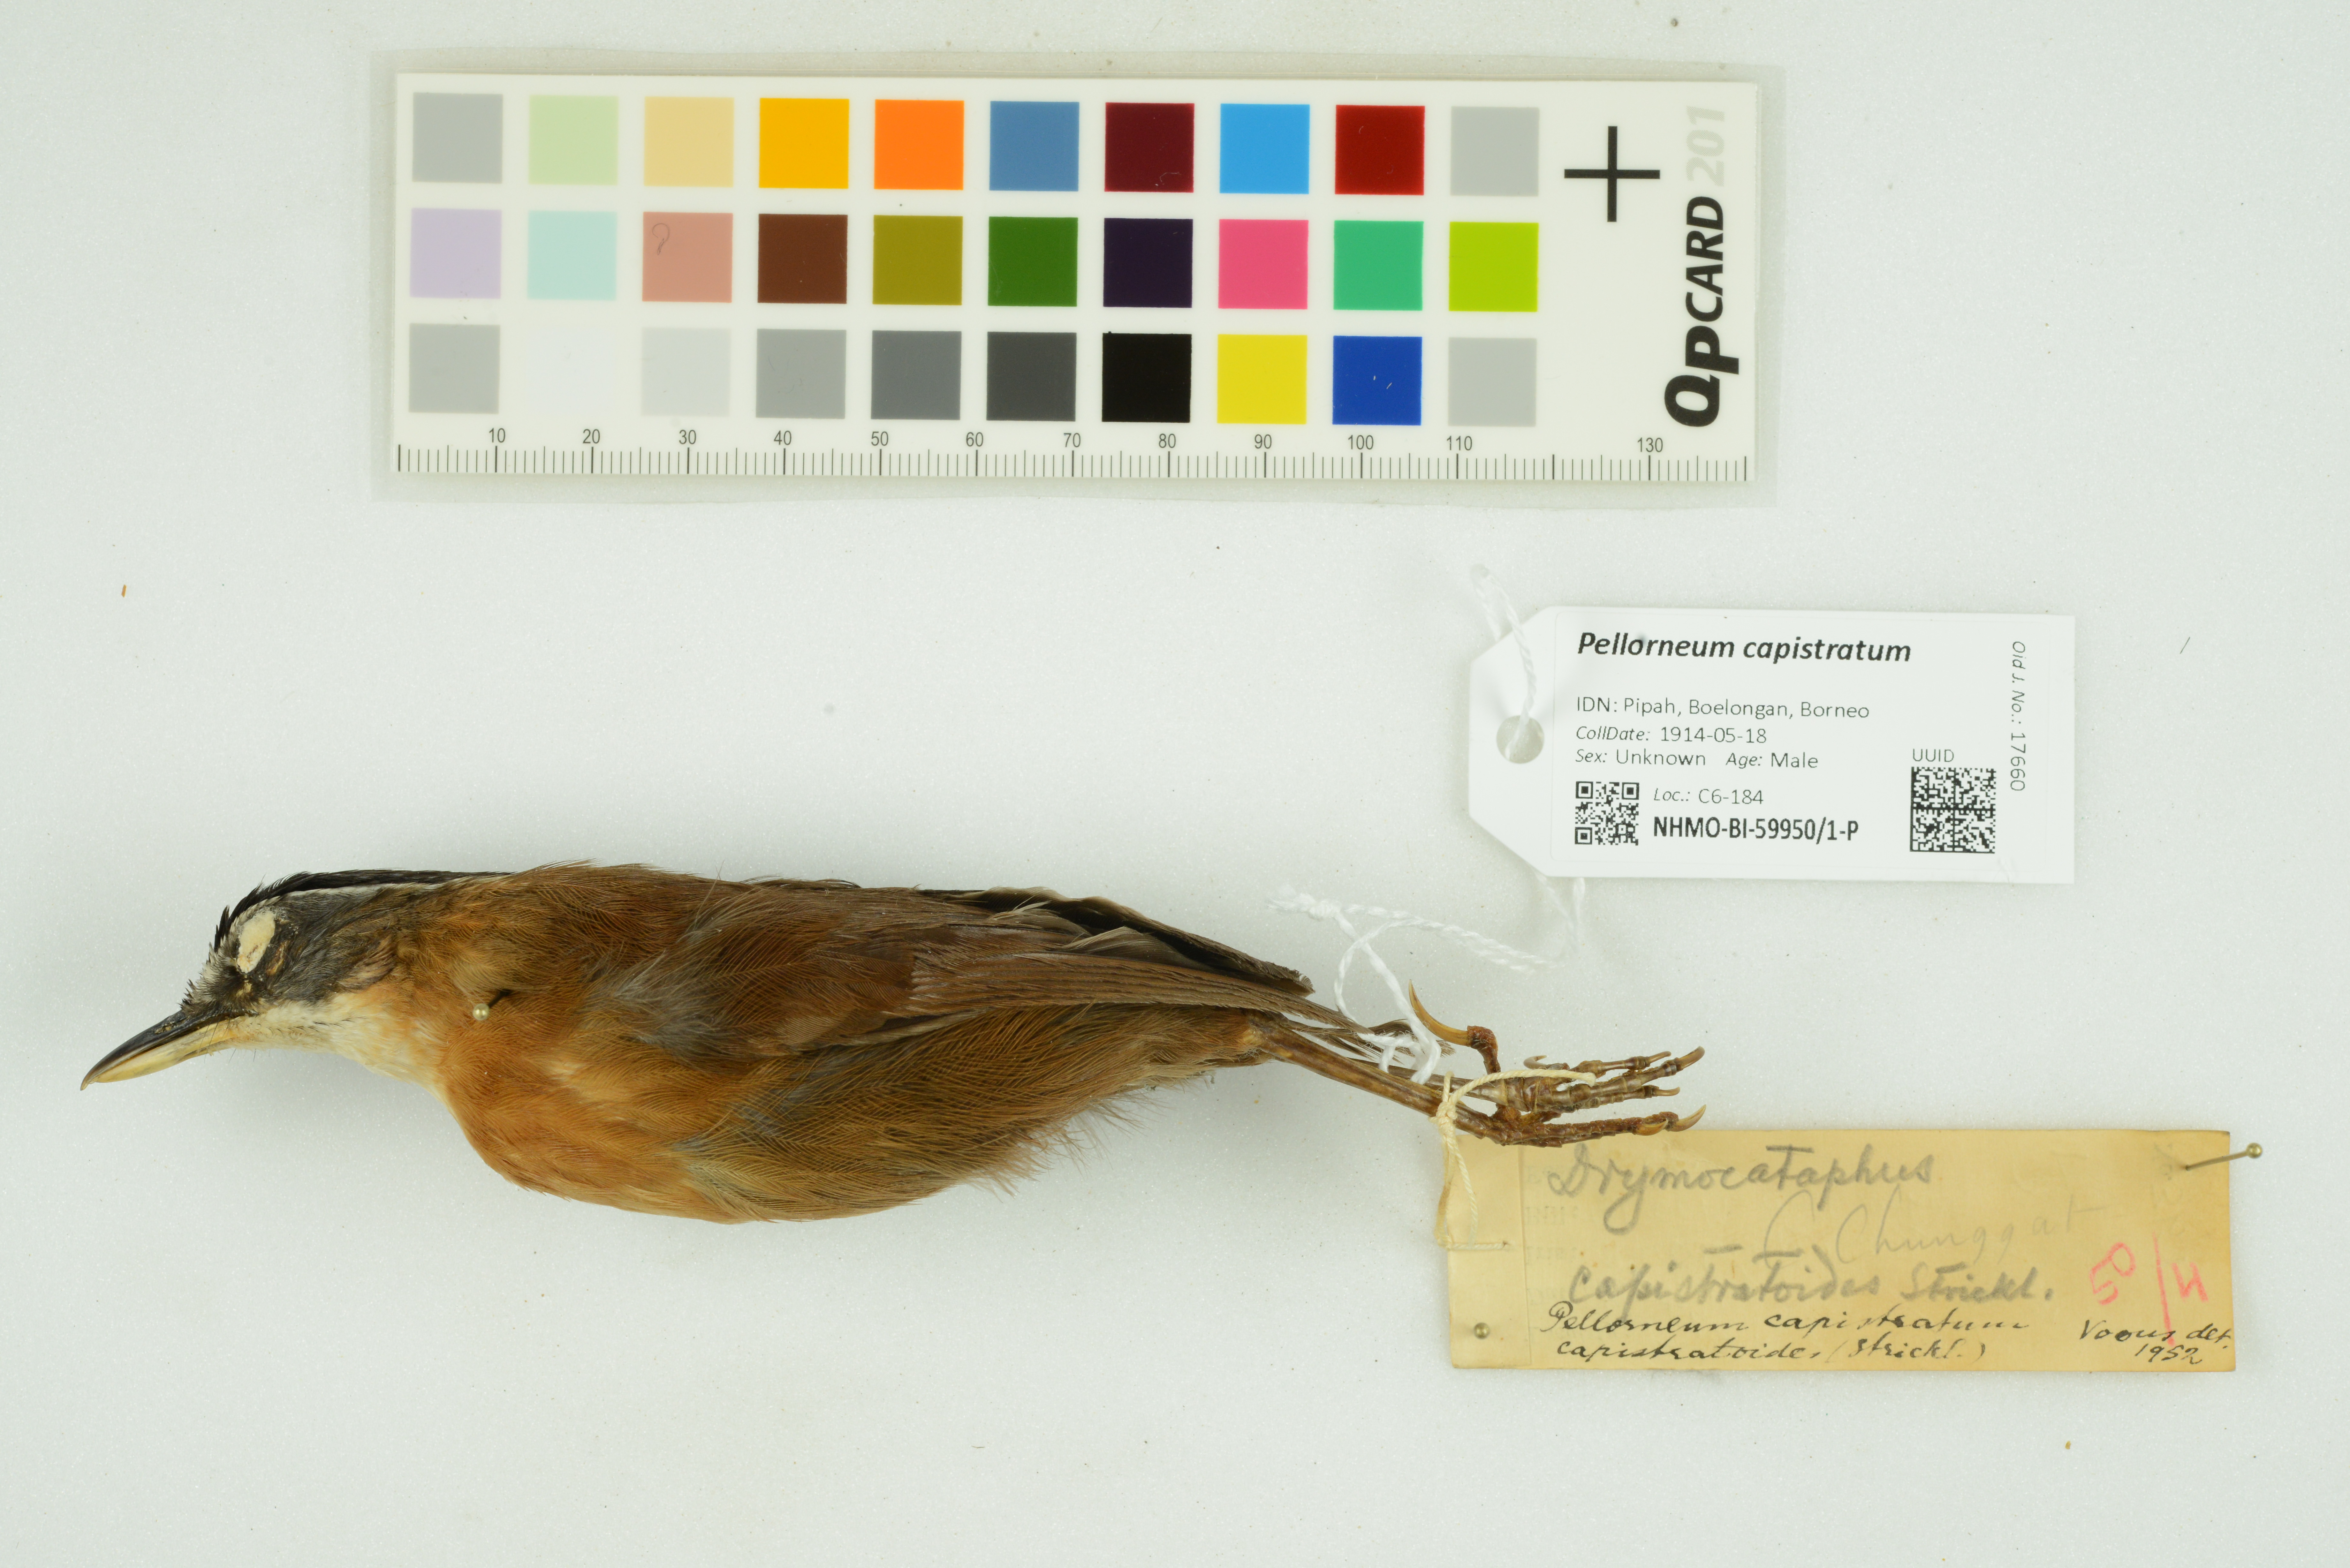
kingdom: Animalia
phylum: Chordata
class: Aves
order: Passeriformes
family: Pellorneidae
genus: Pellorneum
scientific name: Pellorneum capistratum
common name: Black-capped babbler
